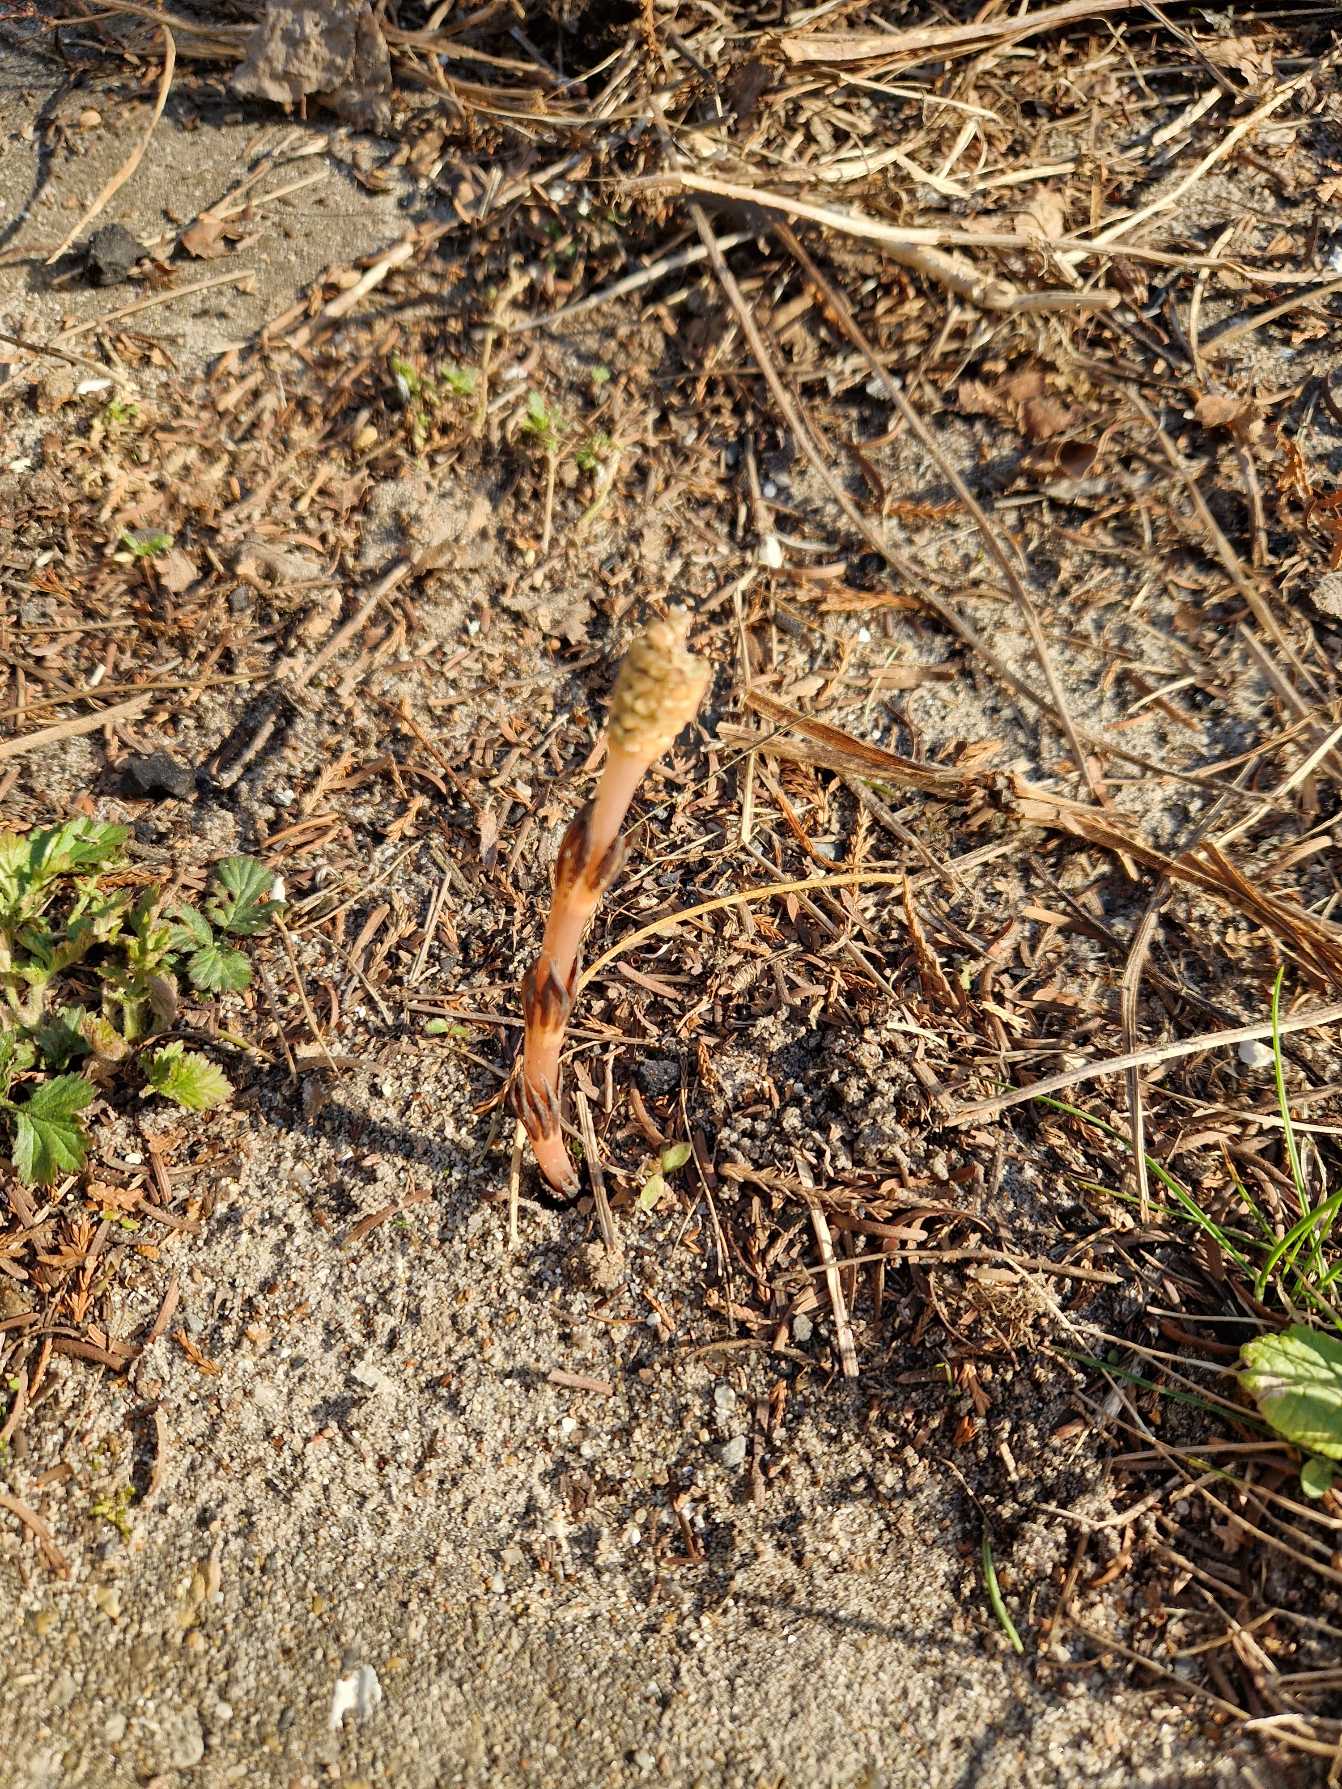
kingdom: Plantae
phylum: Tracheophyta
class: Polypodiopsida
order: Equisetales
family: Equisetaceae
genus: Equisetum
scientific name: Equisetum arvense
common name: Ager-padderok
